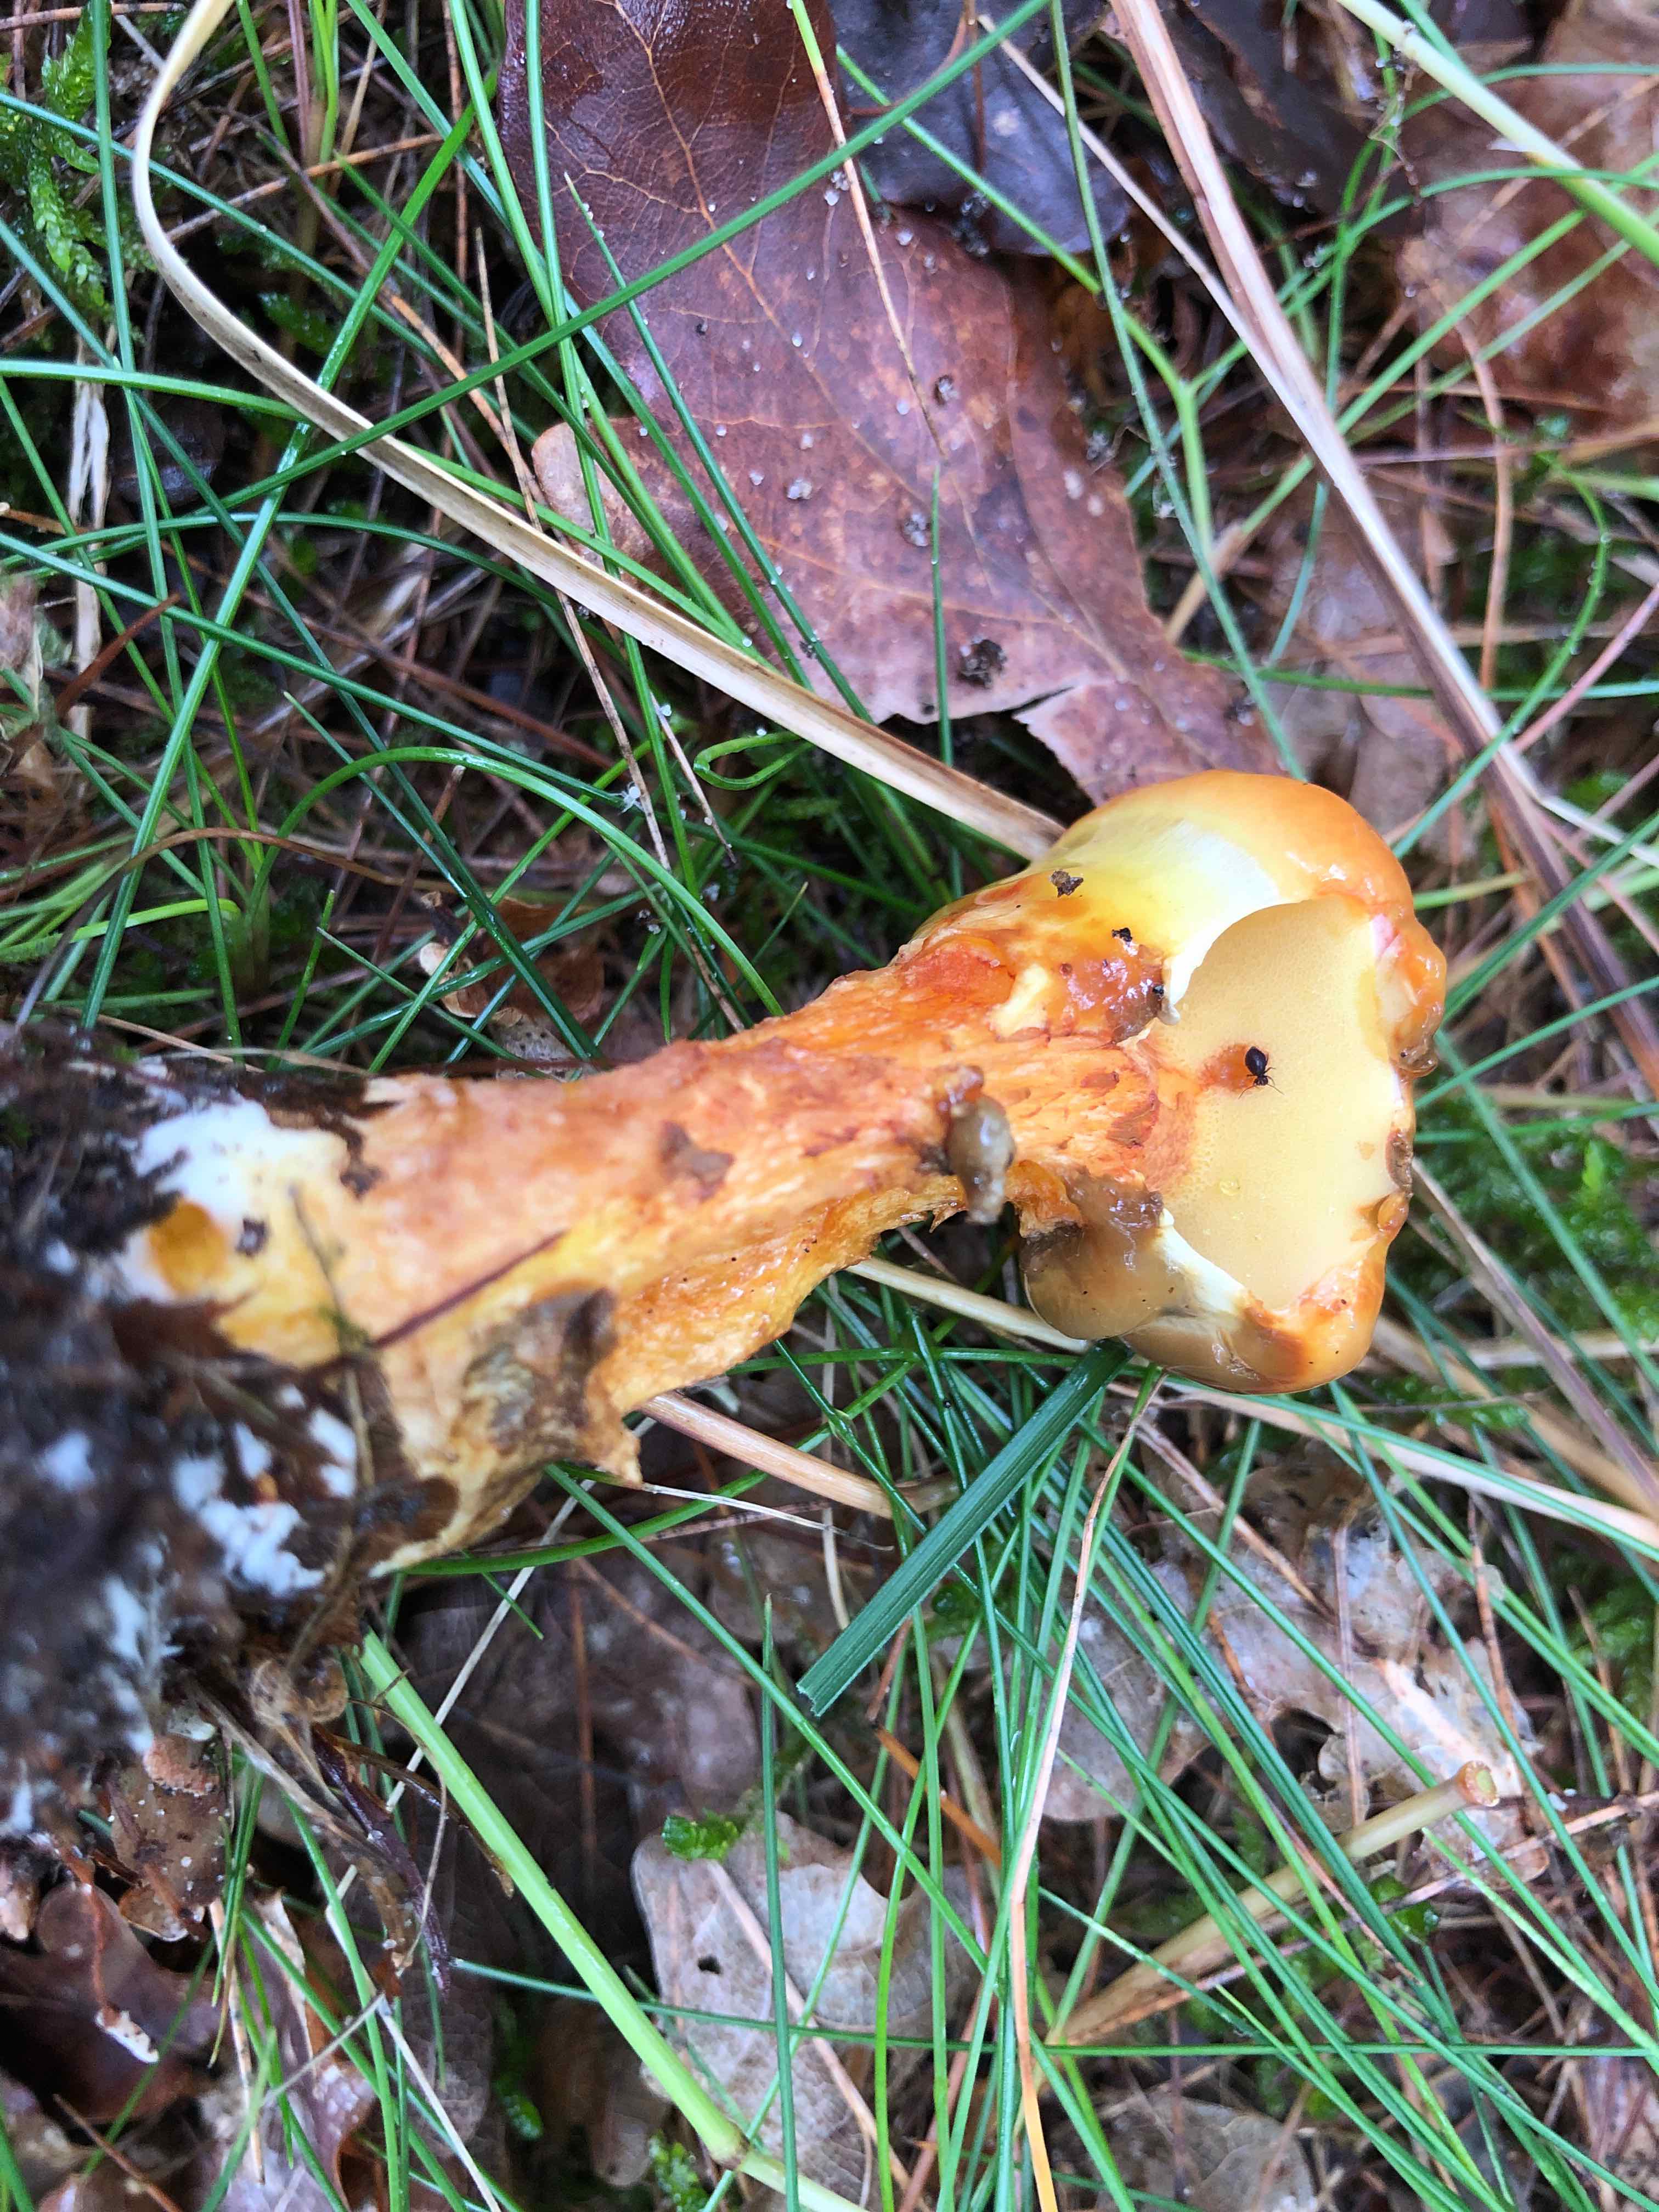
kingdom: Fungi
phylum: Basidiomycota
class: Agaricomycetes
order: Boletales
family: Suillaceae
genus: Suillus
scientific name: Suillus grevillei
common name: lærke-slimrørhat
